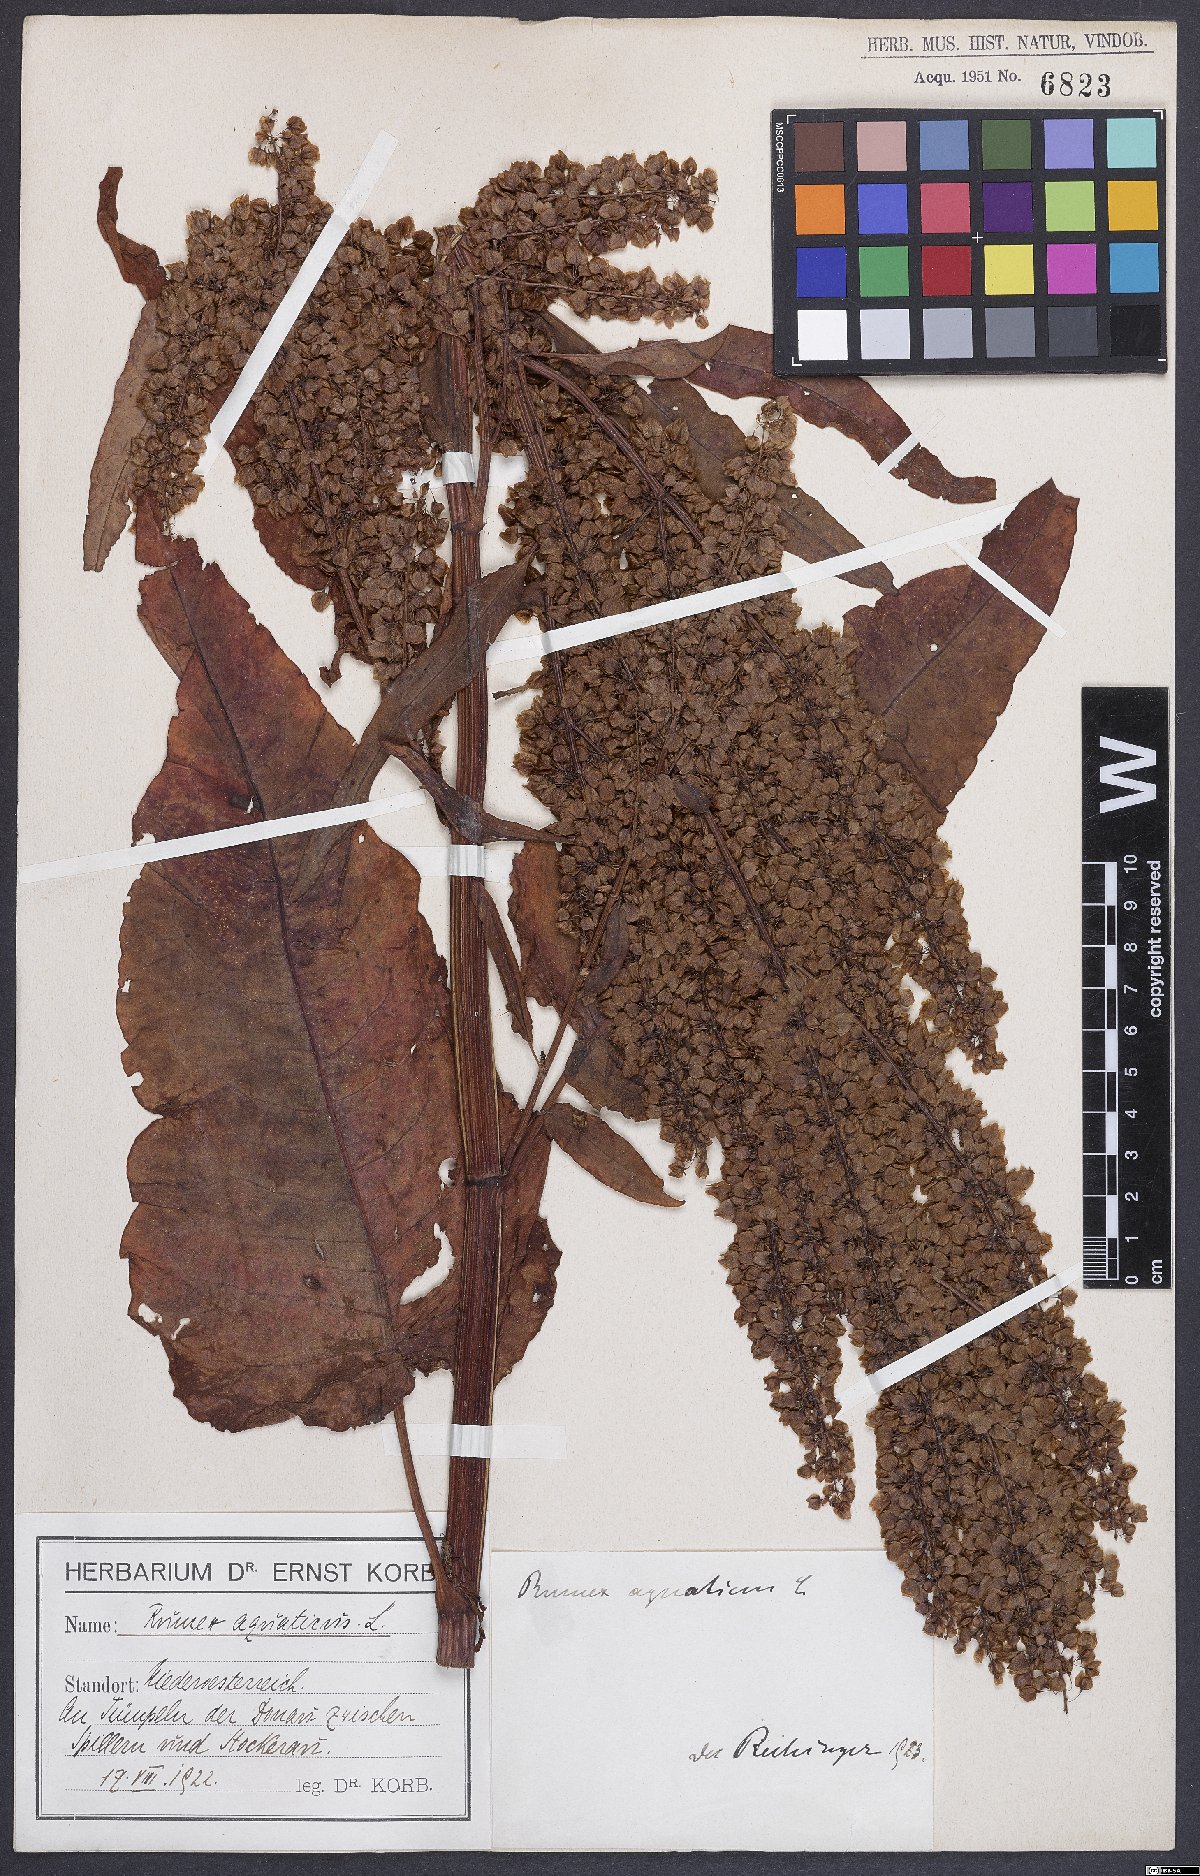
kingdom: Plantae
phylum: Tracheophyta
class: Magnoliopsida
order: Caryophyllales
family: Polygonaceae
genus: Rumex
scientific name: Rumex aquaticus
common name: Scottish dock
